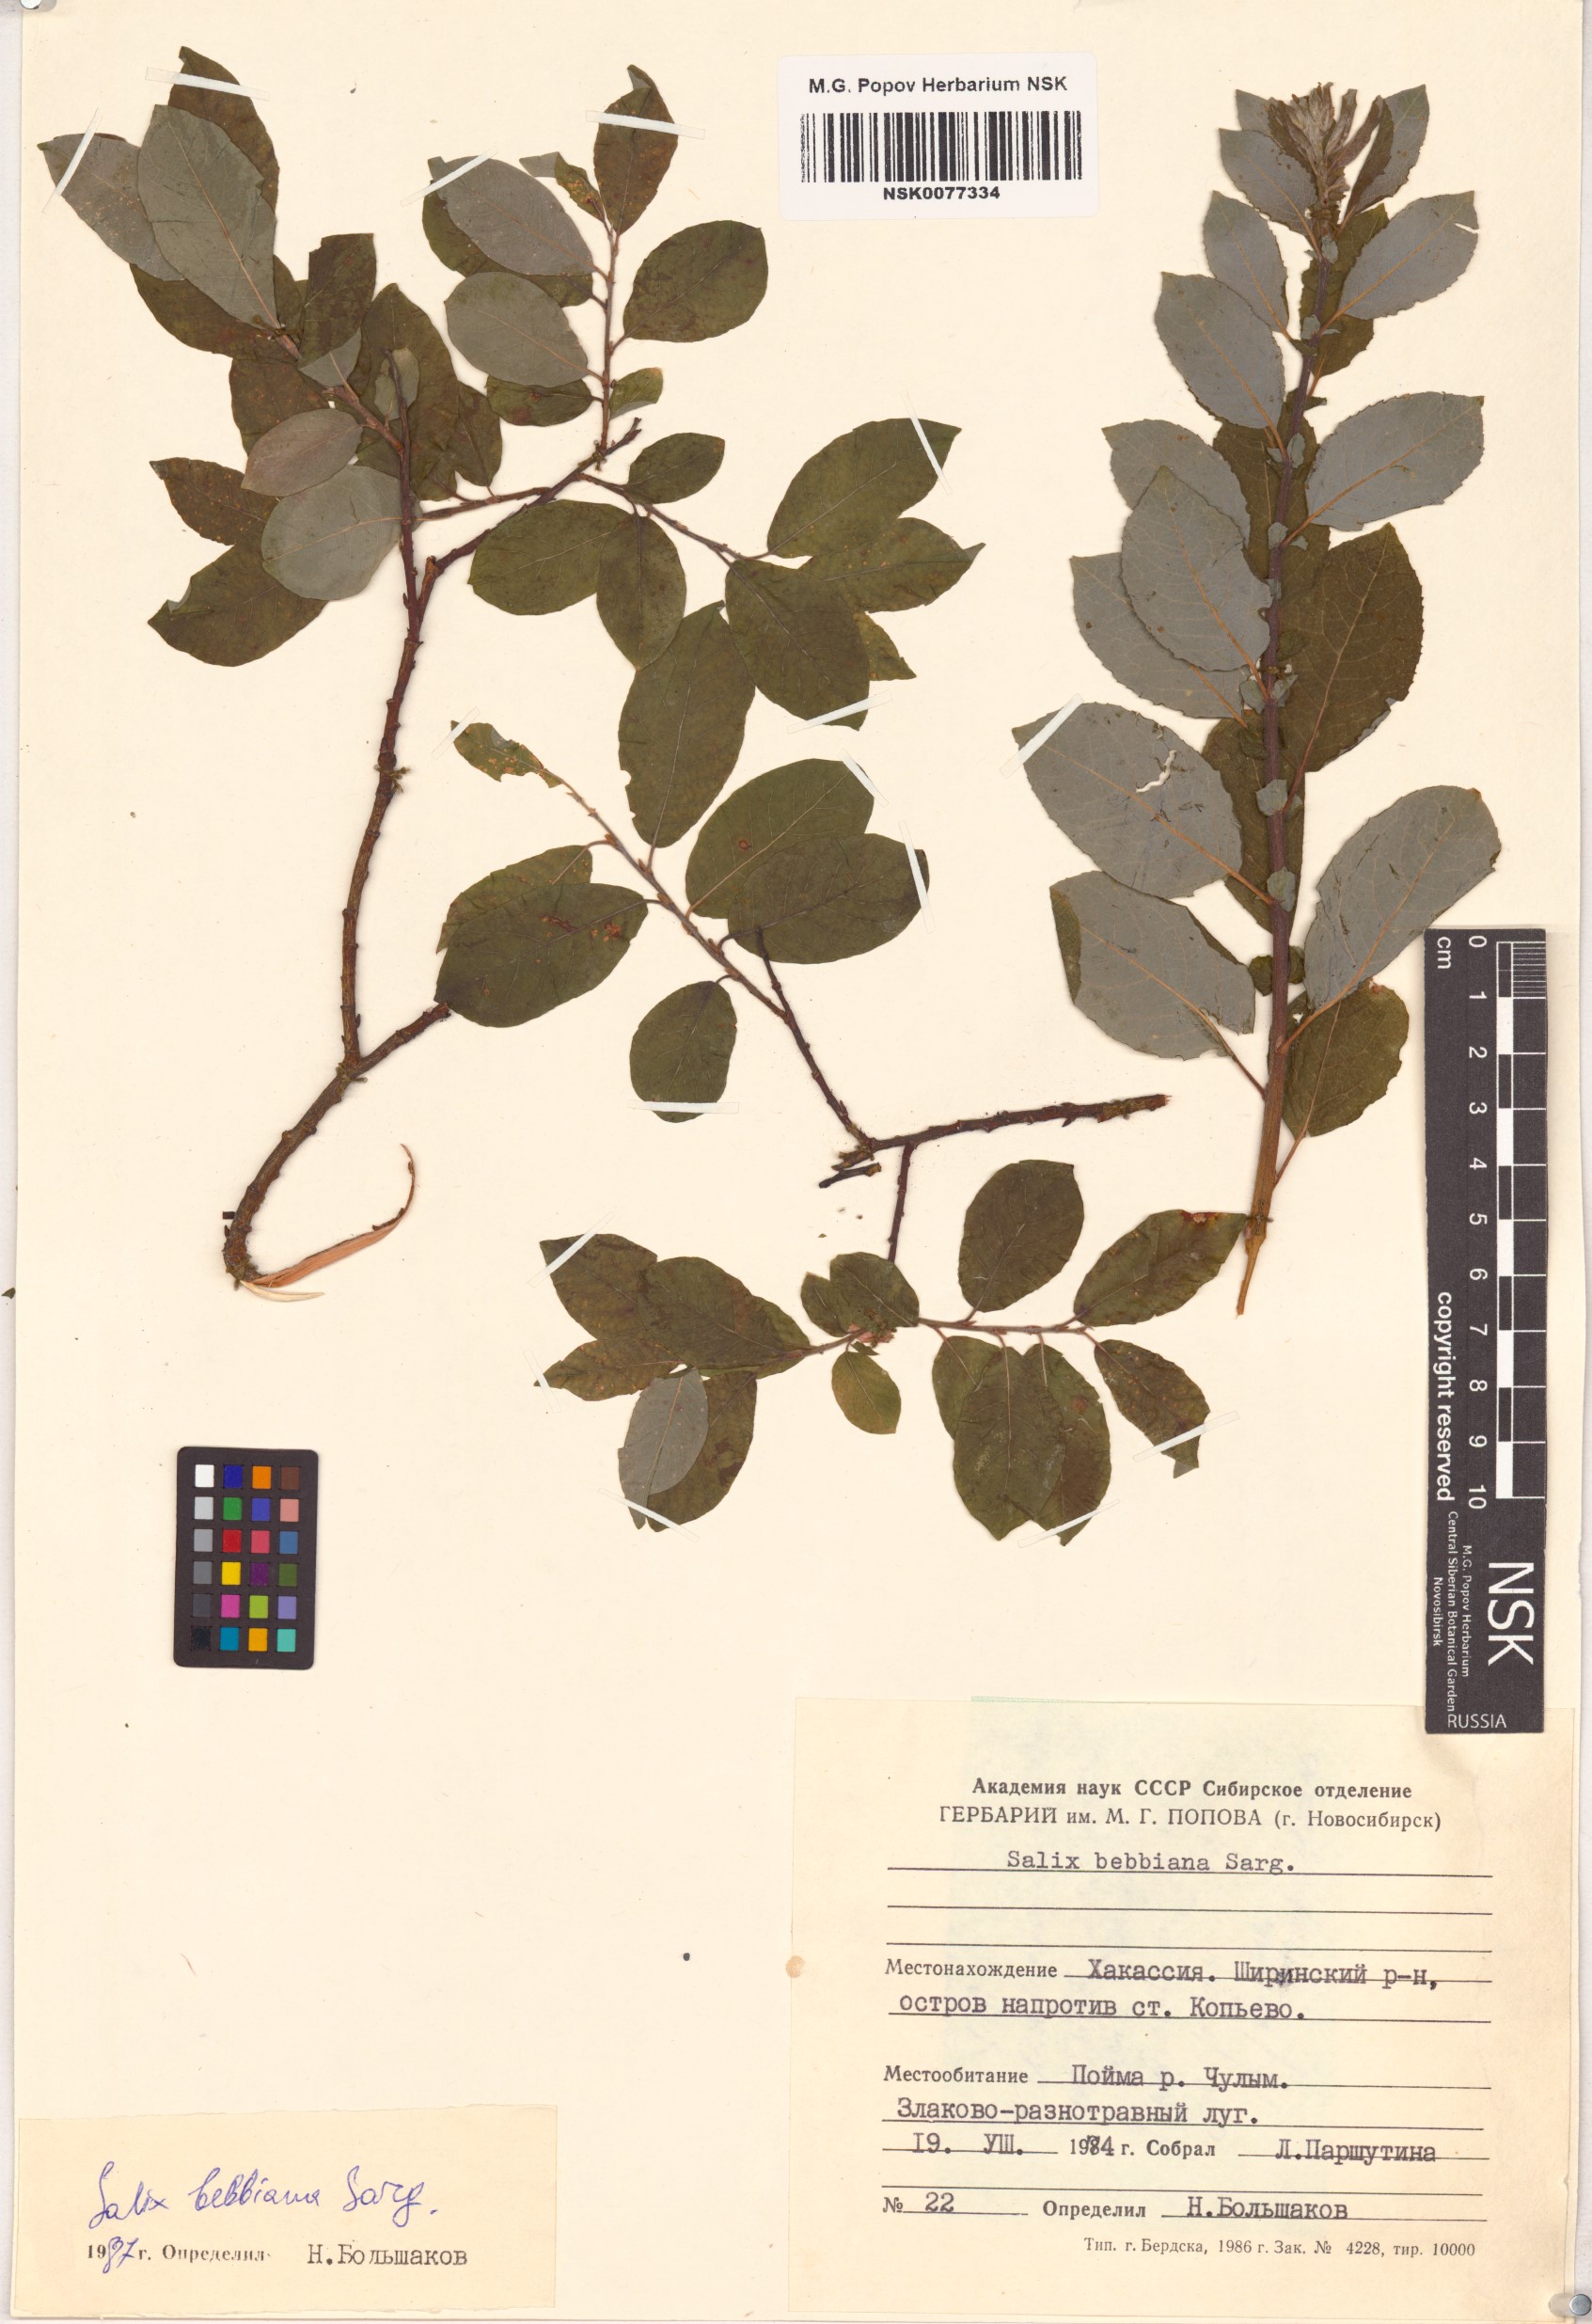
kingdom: Plantae
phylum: Tracheophyta
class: Magnoliopsida
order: Malpighiales
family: Salicaceae
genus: Salix
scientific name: Salix bebbiana
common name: Bebb's willow
